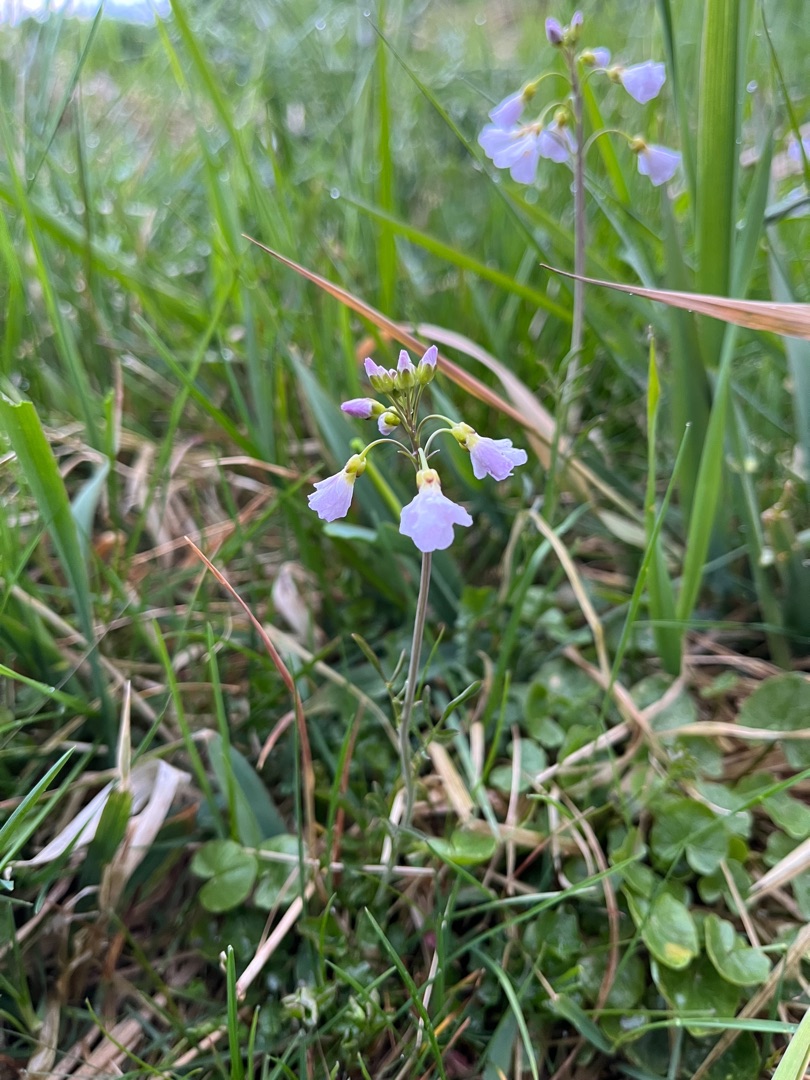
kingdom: Plantae
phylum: Tracheophyta
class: Magnoliopsida
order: Brassicales
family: Brassicaceae
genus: Cardamine
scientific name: Cardamine pratensis
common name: Engkarse
